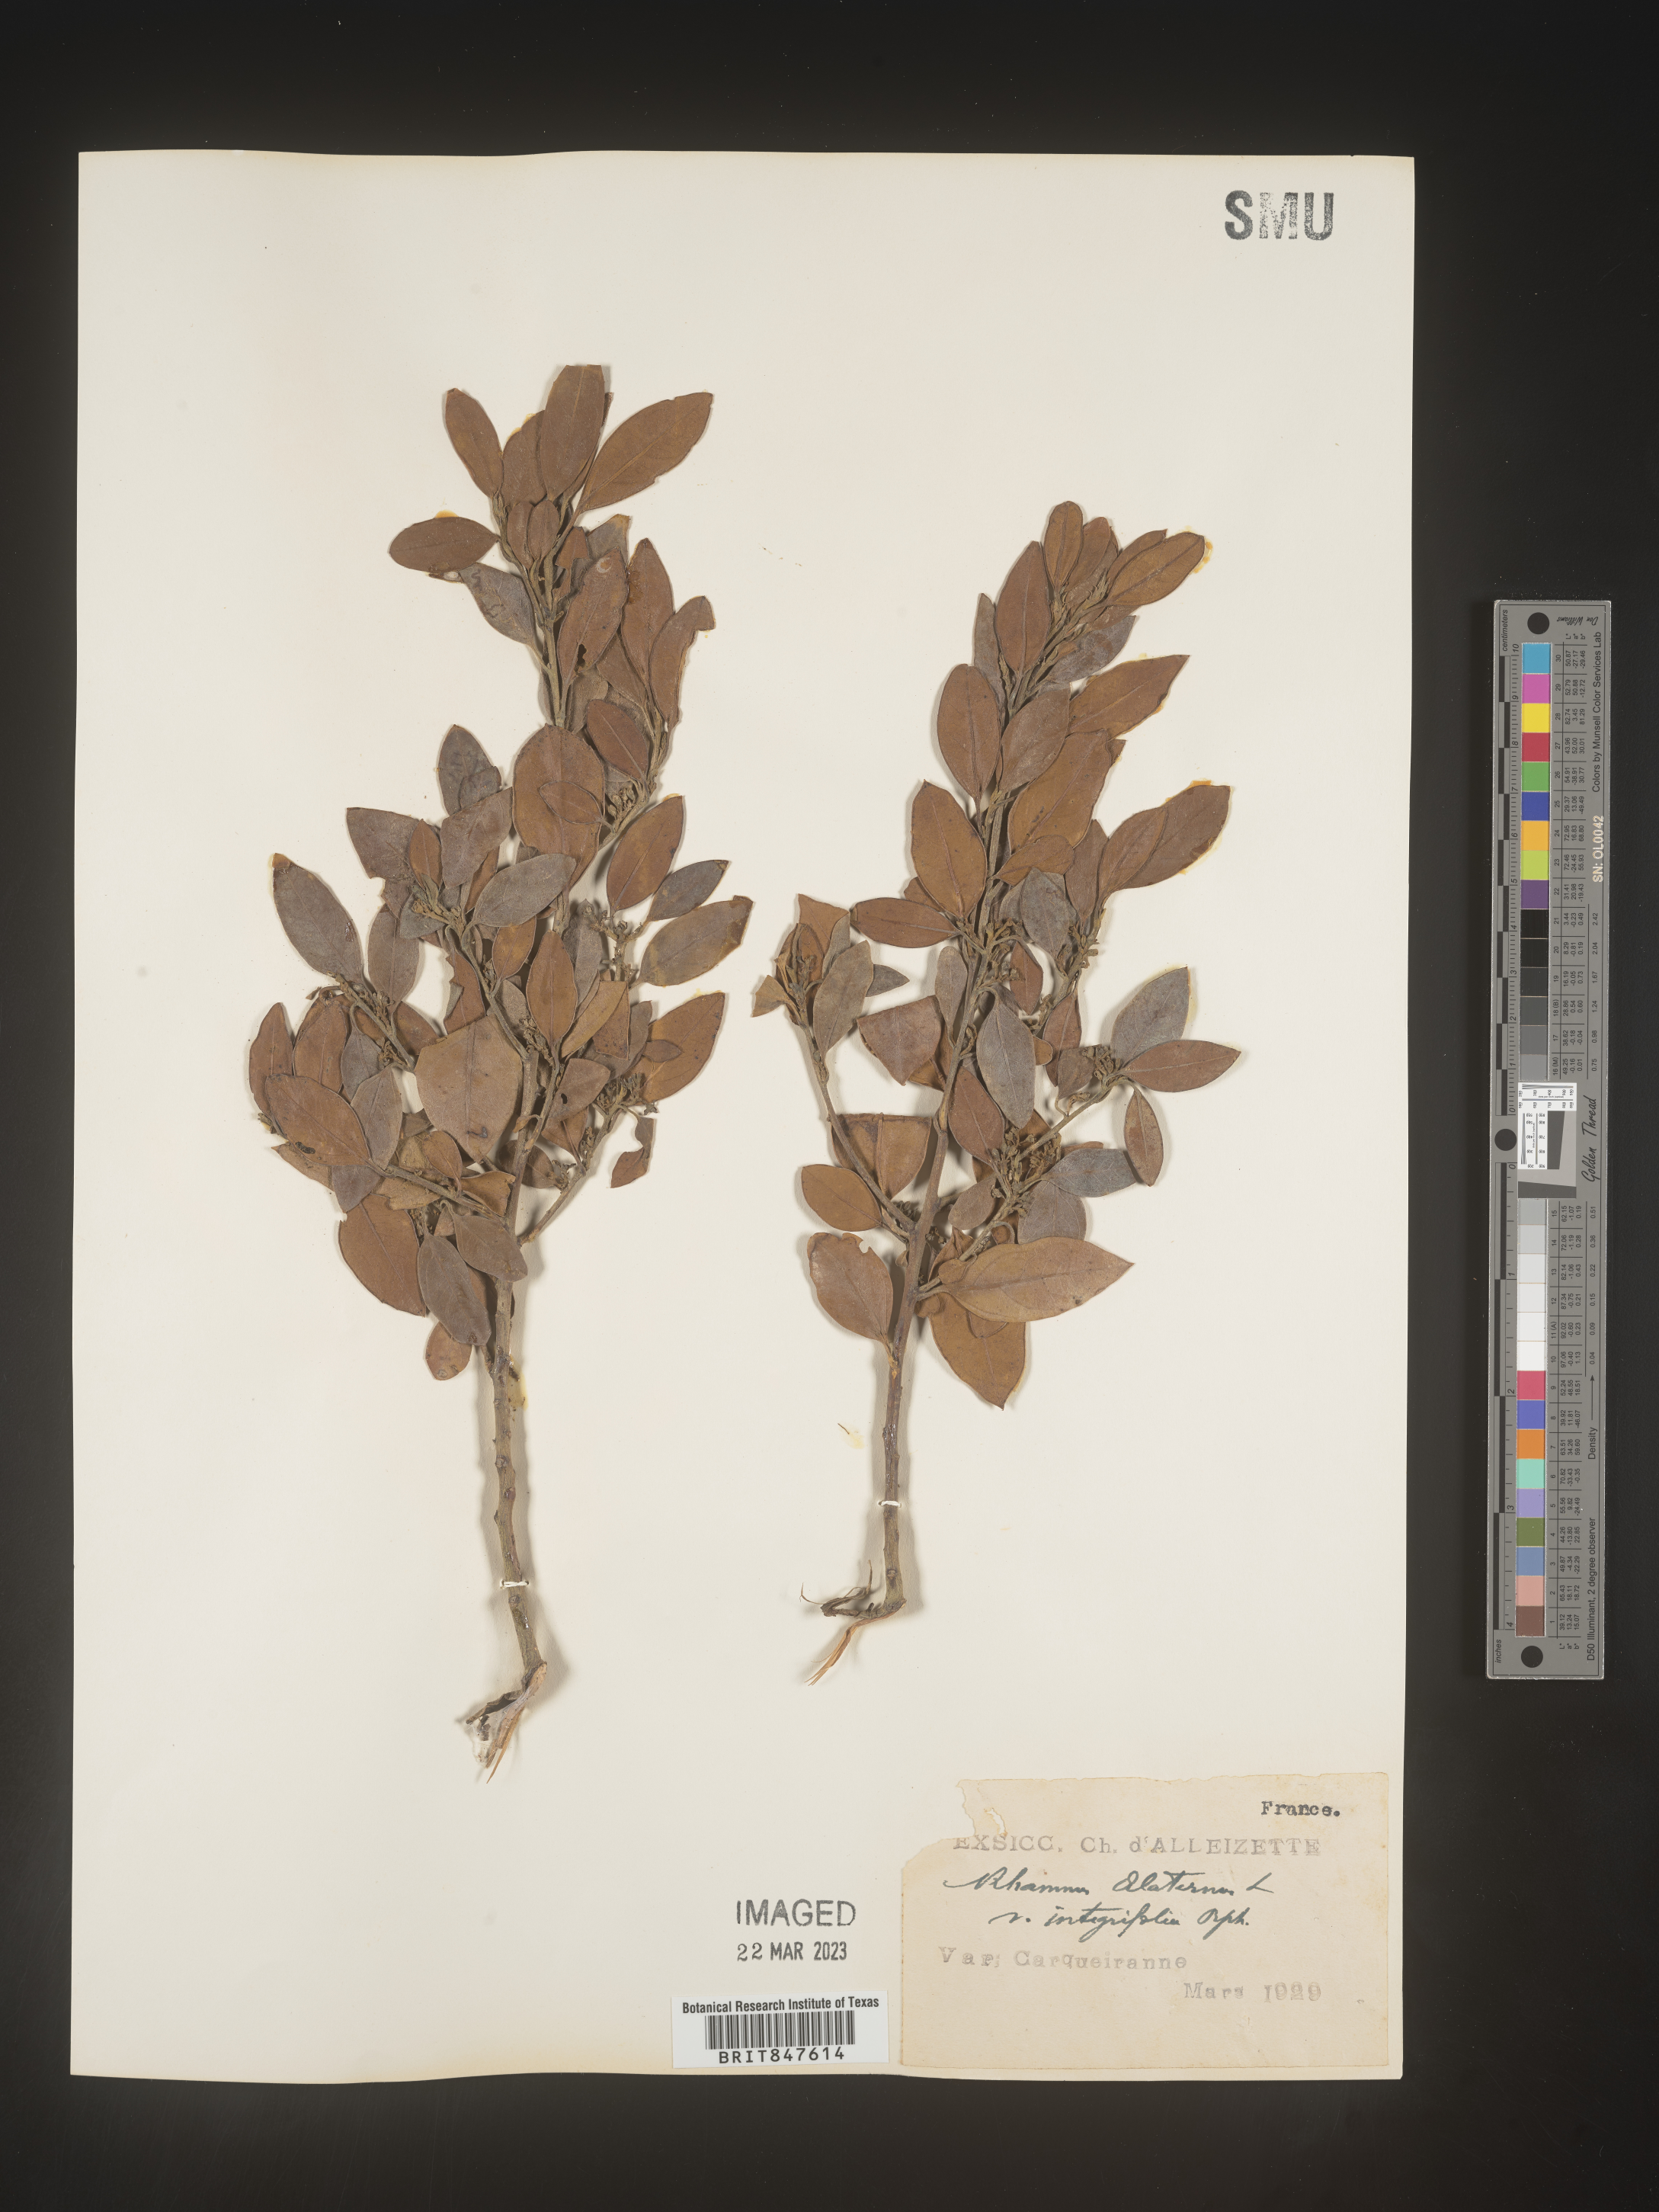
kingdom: Plantae
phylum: Tracheophyta
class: Magnoliopsida
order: Rosales
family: Rhamnaceae
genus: Rhamnus
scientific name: Rhamnus
